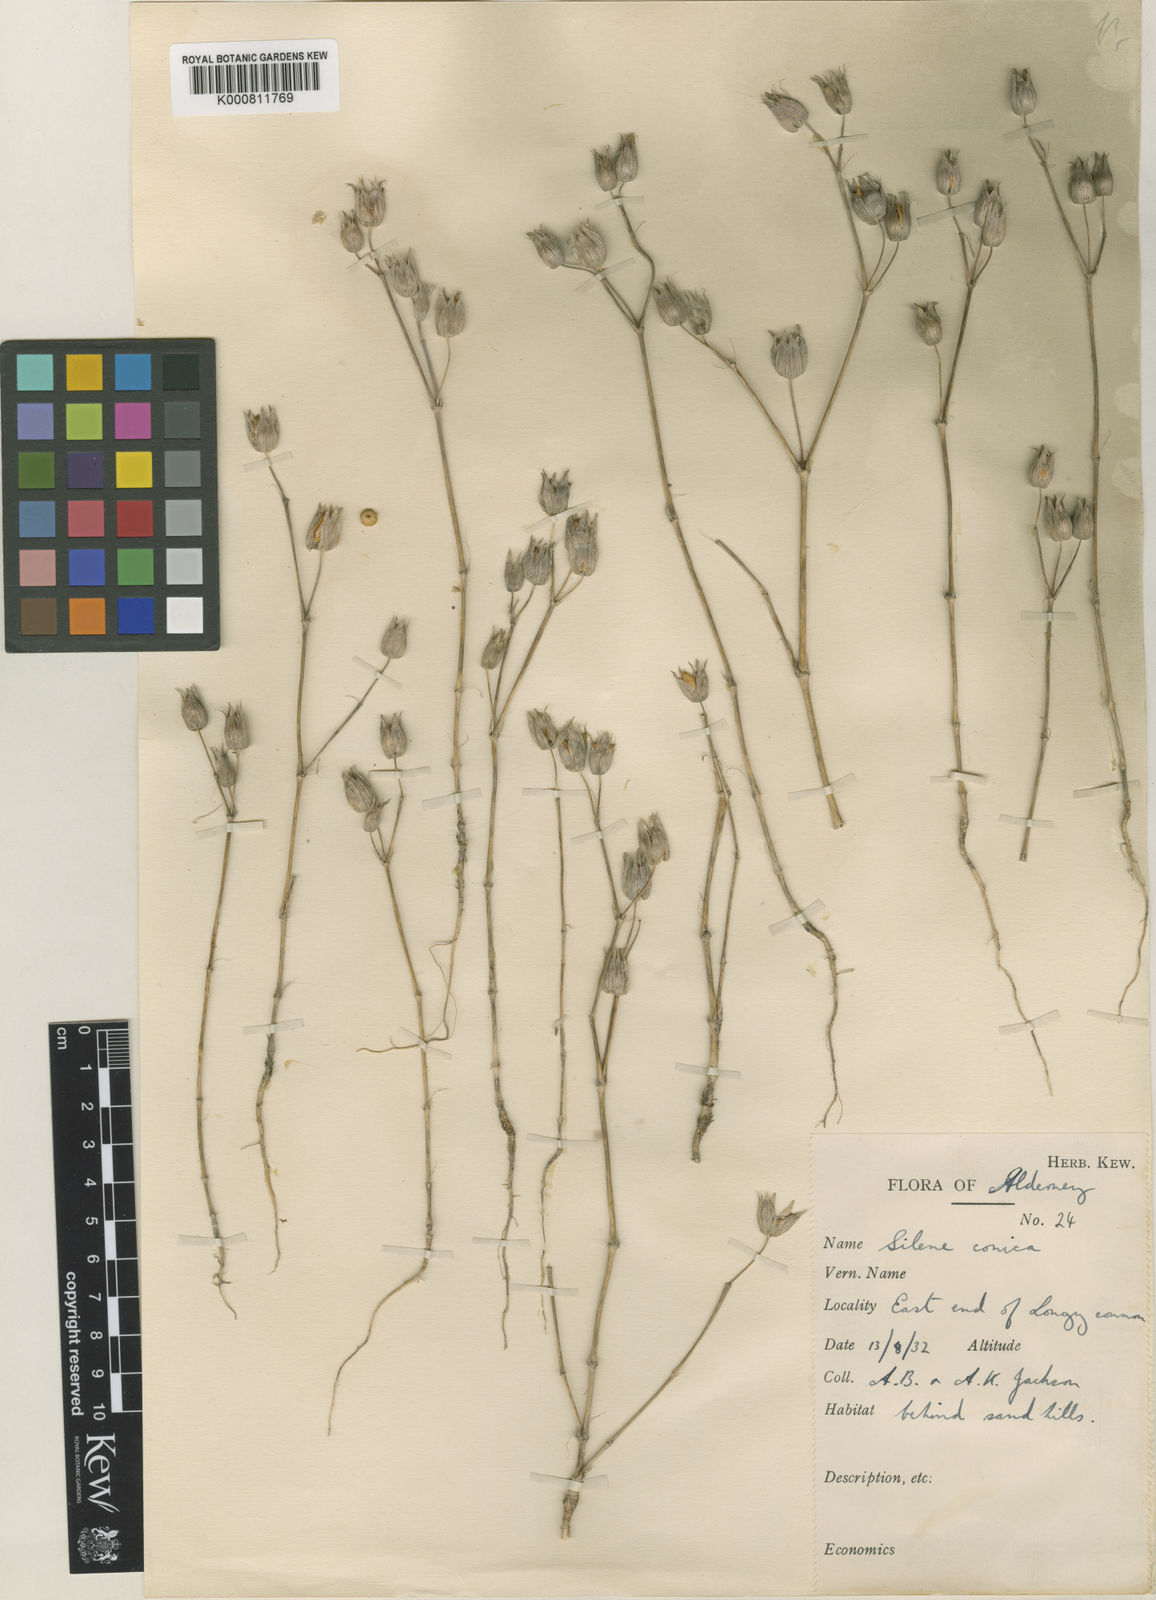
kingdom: Plantae
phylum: Tracheophyta
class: Magnoliopsida
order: Caryophyllales
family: Caryophyllaceae
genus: Silene
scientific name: Silene conica
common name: Sand catchfly
